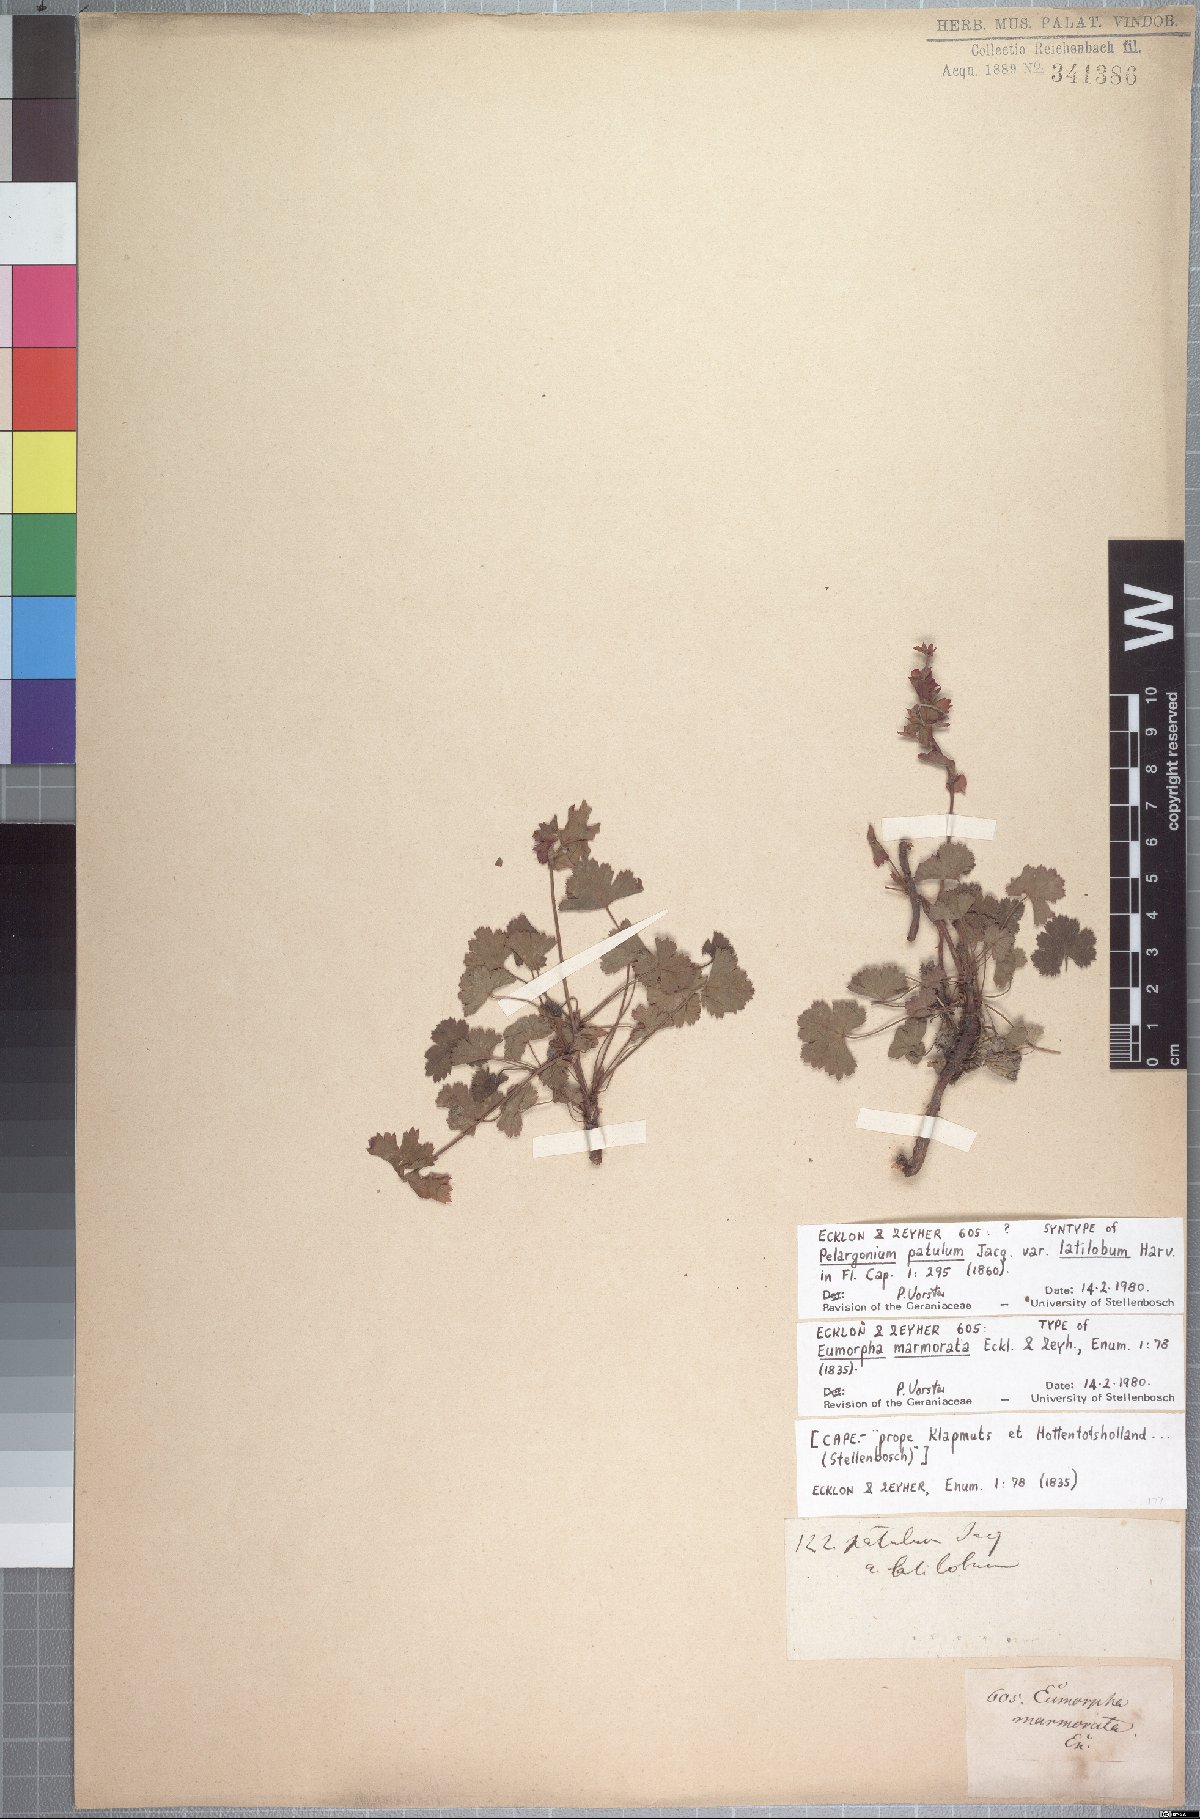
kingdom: Plantae
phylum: Tracheophyta
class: Magnoliopsida
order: Geraniales
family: Geraniaceae
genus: Pelargonium
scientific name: Pelargonium patulum
